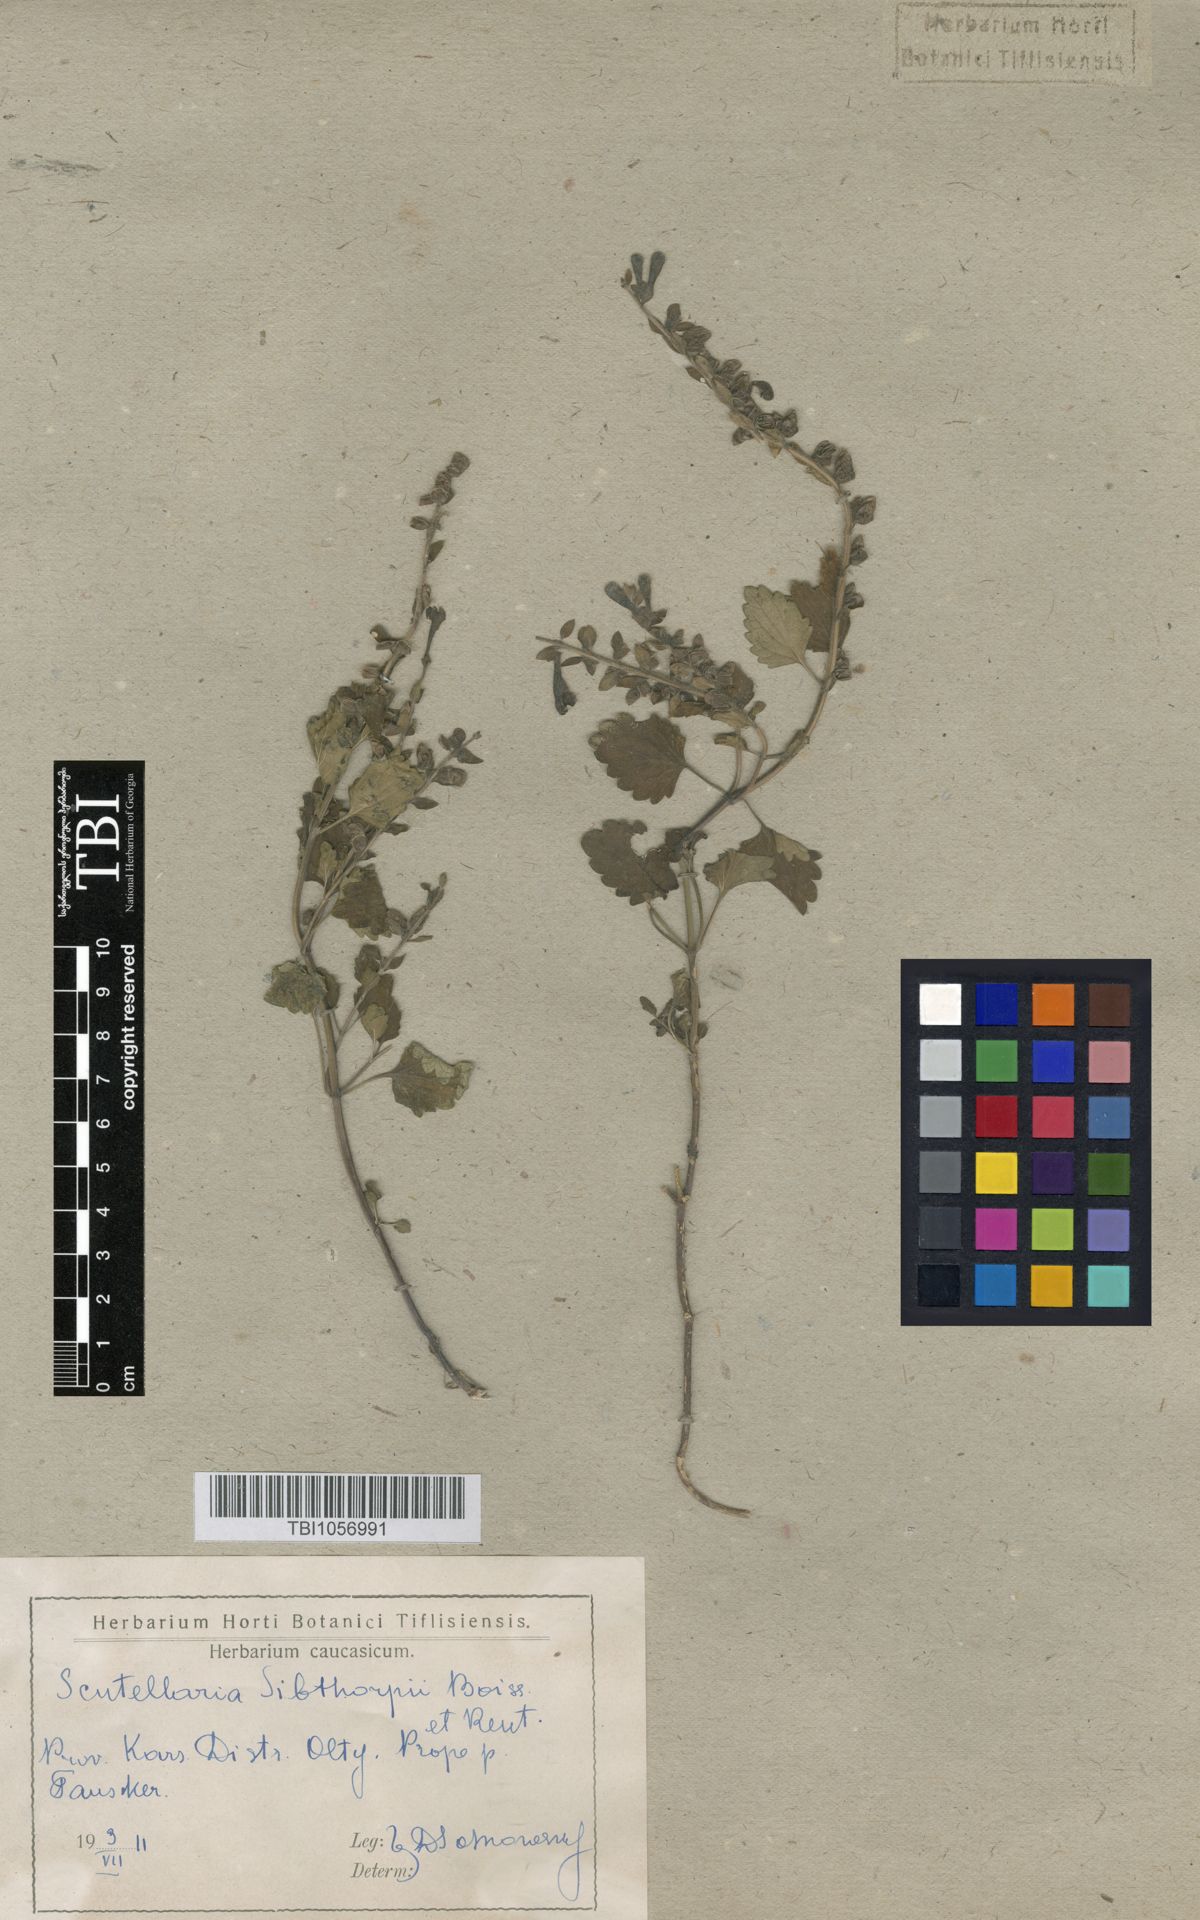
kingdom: Plantae
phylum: Tracheophyta
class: Magnoliopsida
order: Lamiales
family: Lamiaceae
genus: Scutellaria
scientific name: Scutellaria albida
